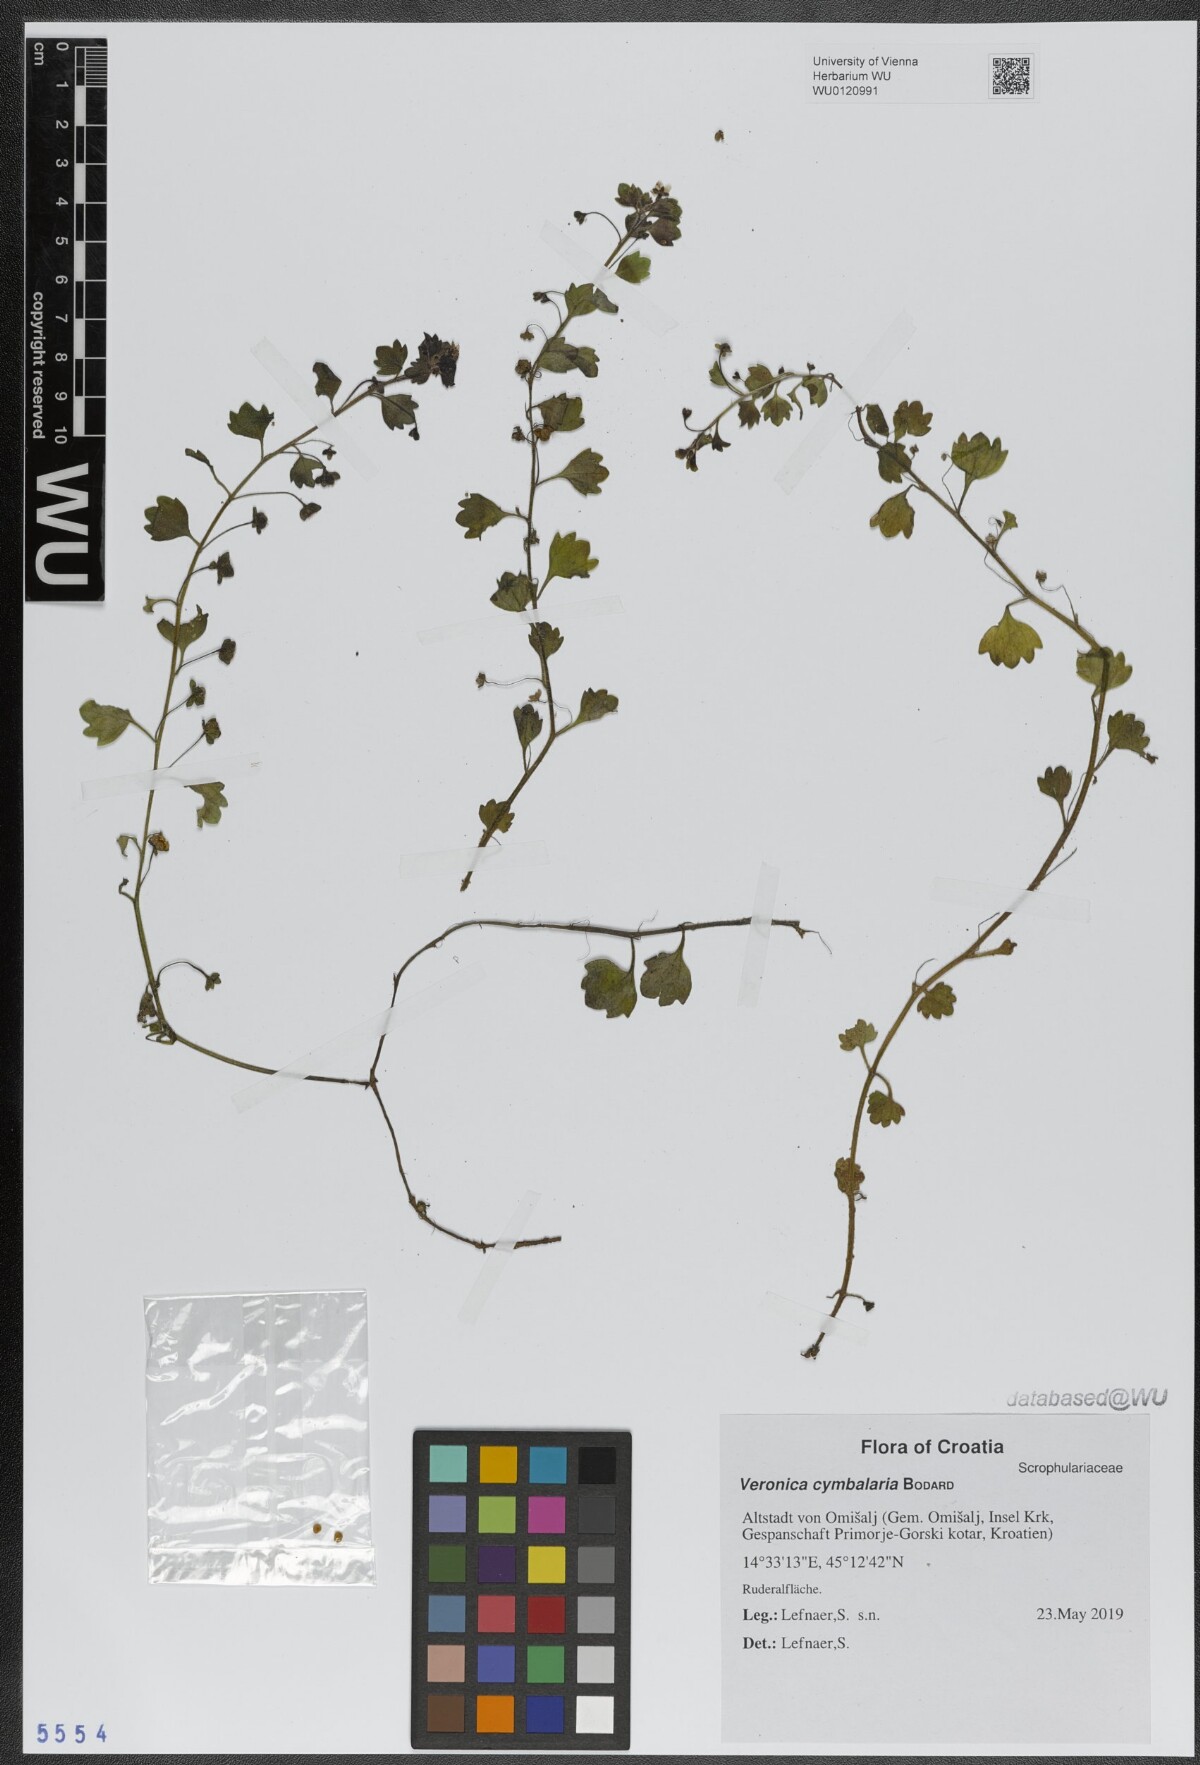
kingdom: Plantae
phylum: Tracheophyta
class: Magnoliopsida
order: Lamiales
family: Plantaginaceae
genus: Veronica
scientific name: Veronica cymbalaria
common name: Pale speedwell
